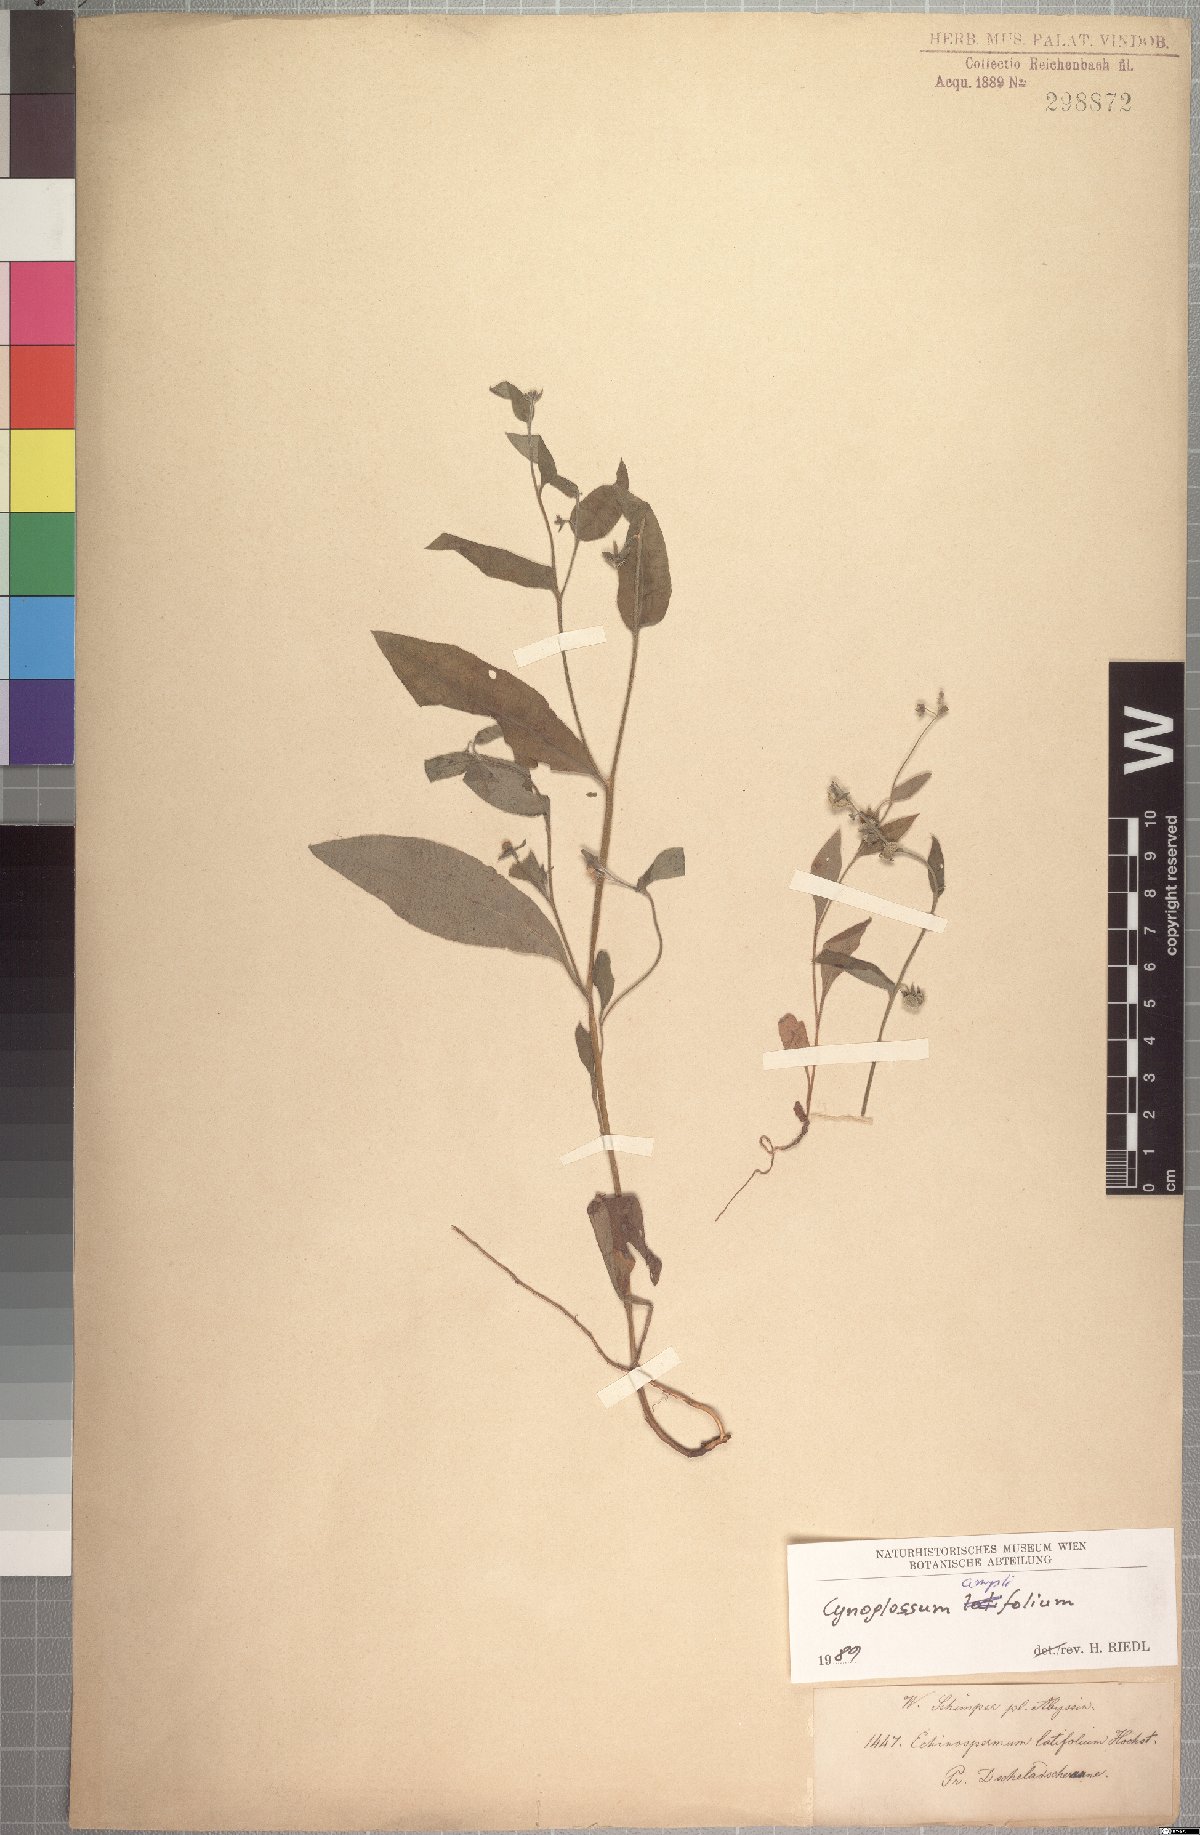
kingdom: Plantae
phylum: Tracheophyta
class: Magnoliopsida
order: Boraginales
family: Boraginaceae
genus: Cynoglossopsis
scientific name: Cynoglossopsis latifolia
